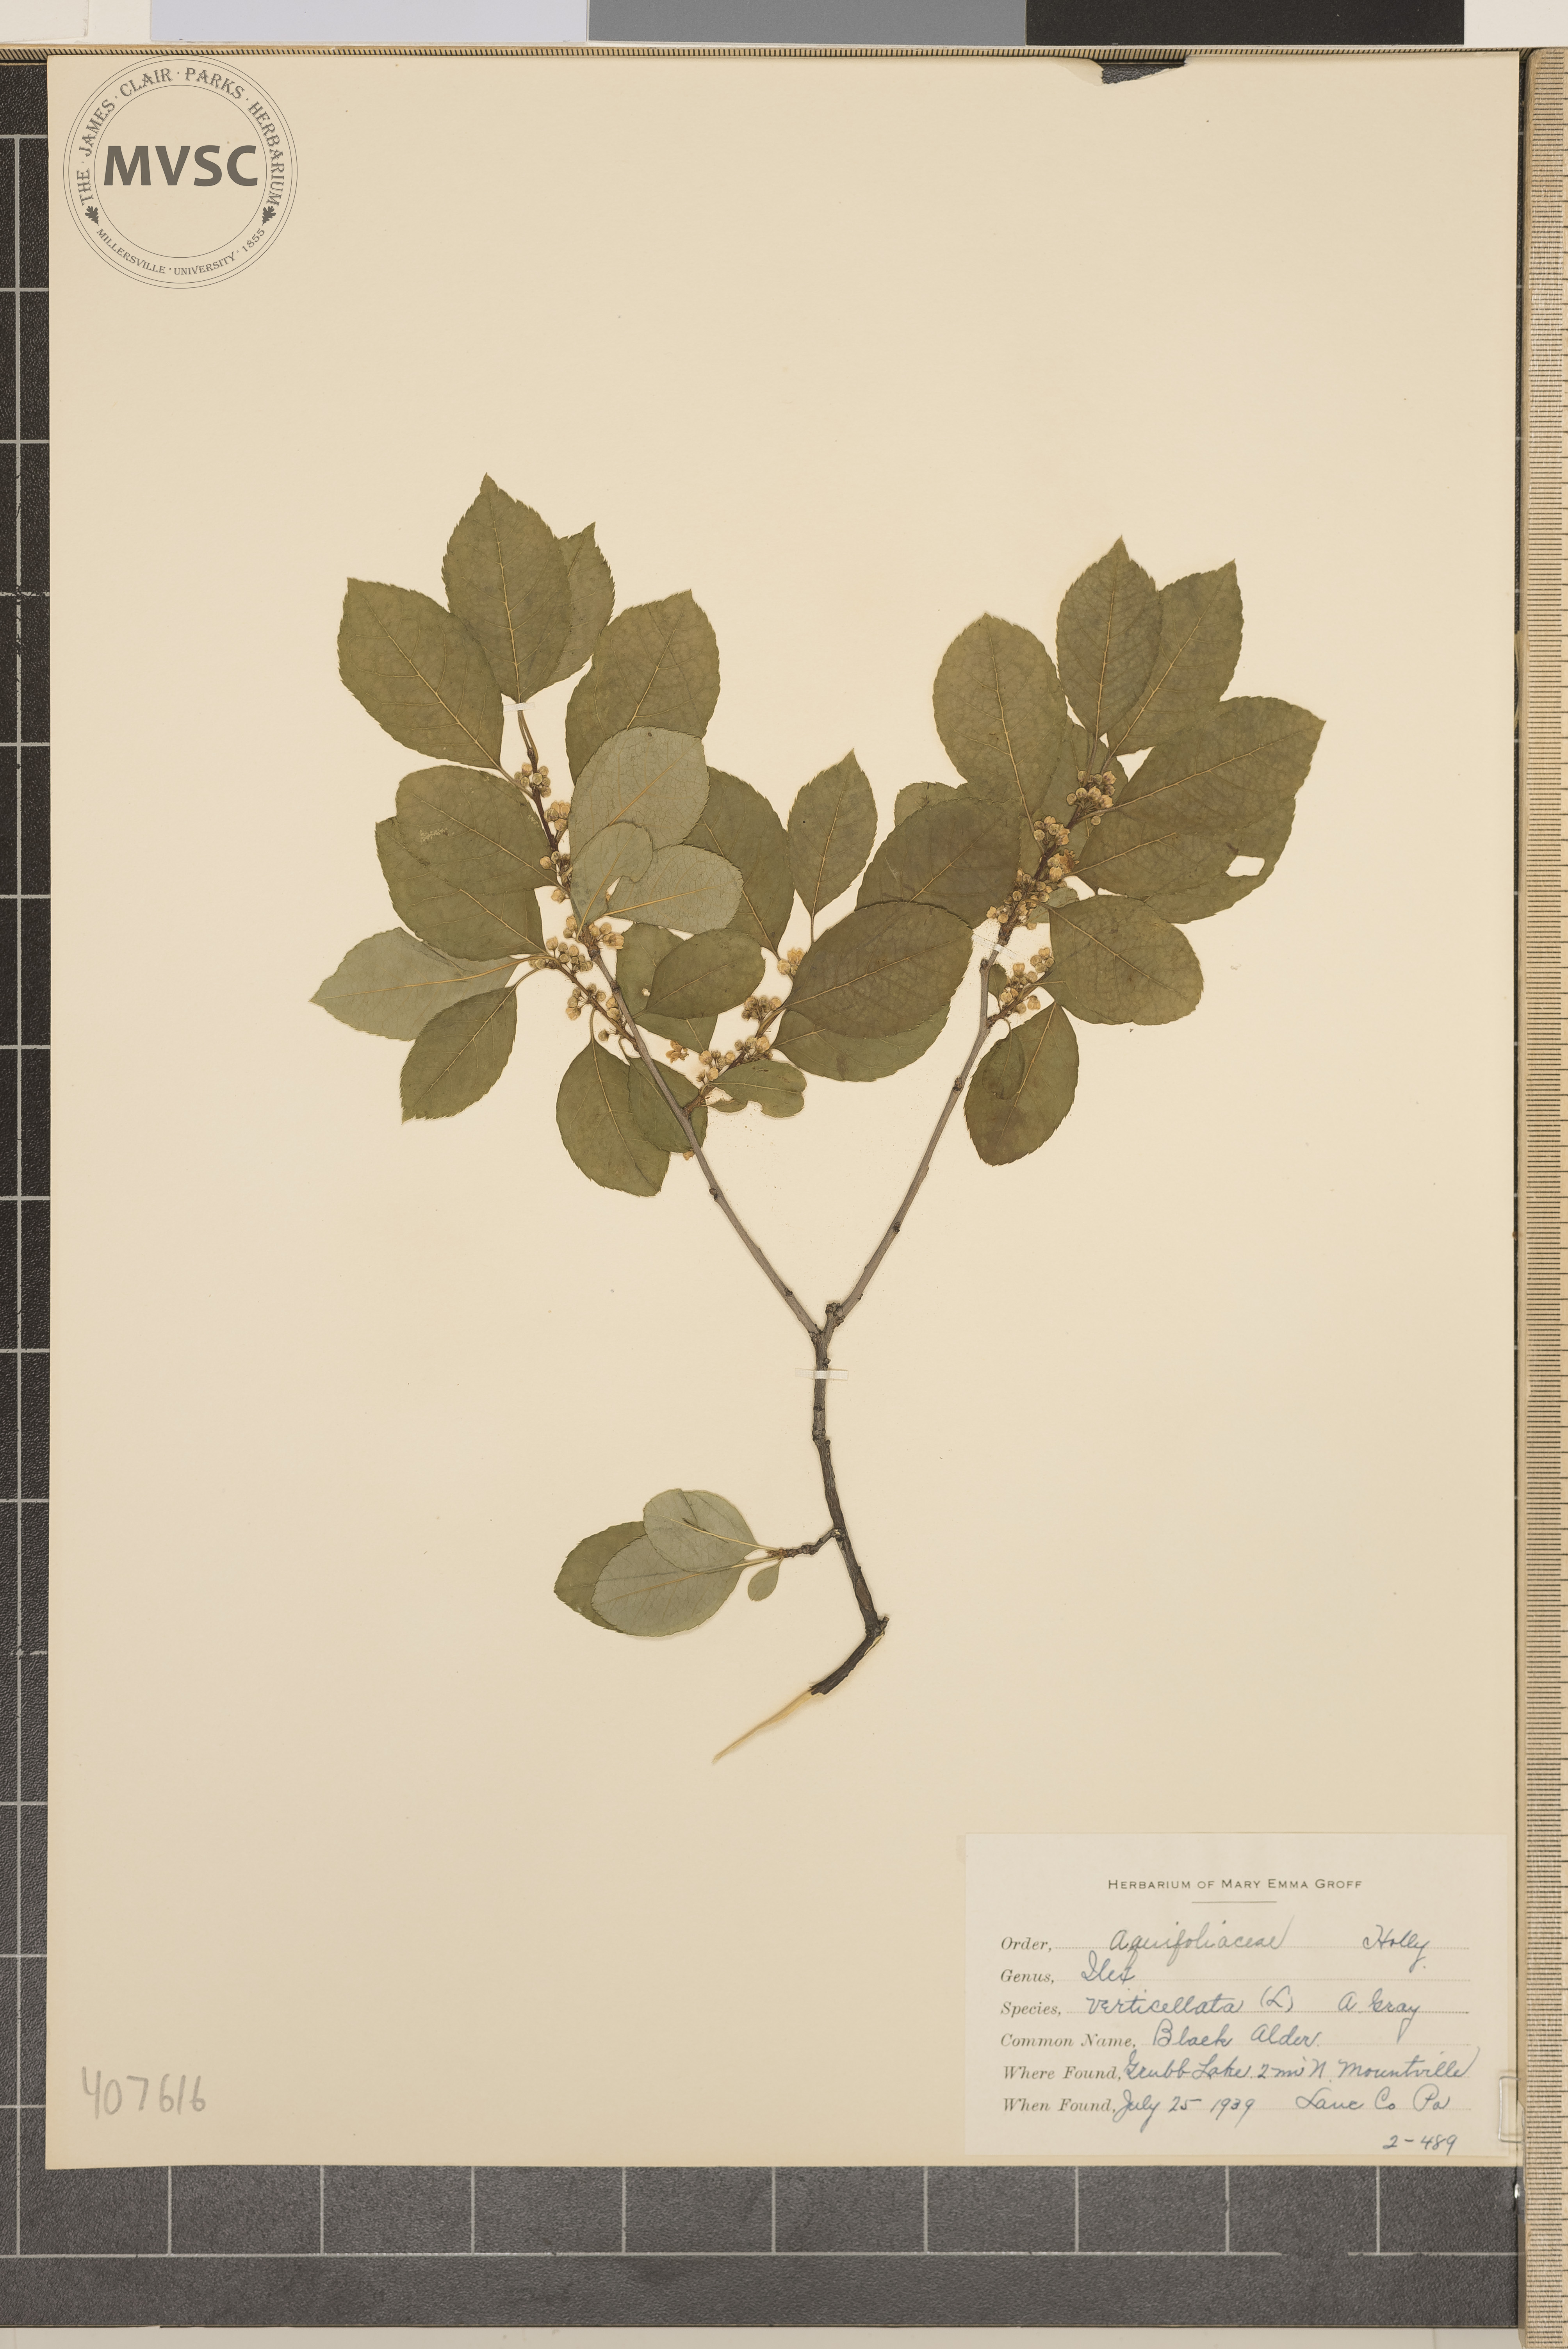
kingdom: Plantae
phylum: Tracheophyta
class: Magnoliopsida
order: Aquifoliales
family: Aquifoliaceae
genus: Ilex
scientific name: Ilex verticillata
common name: black alder
